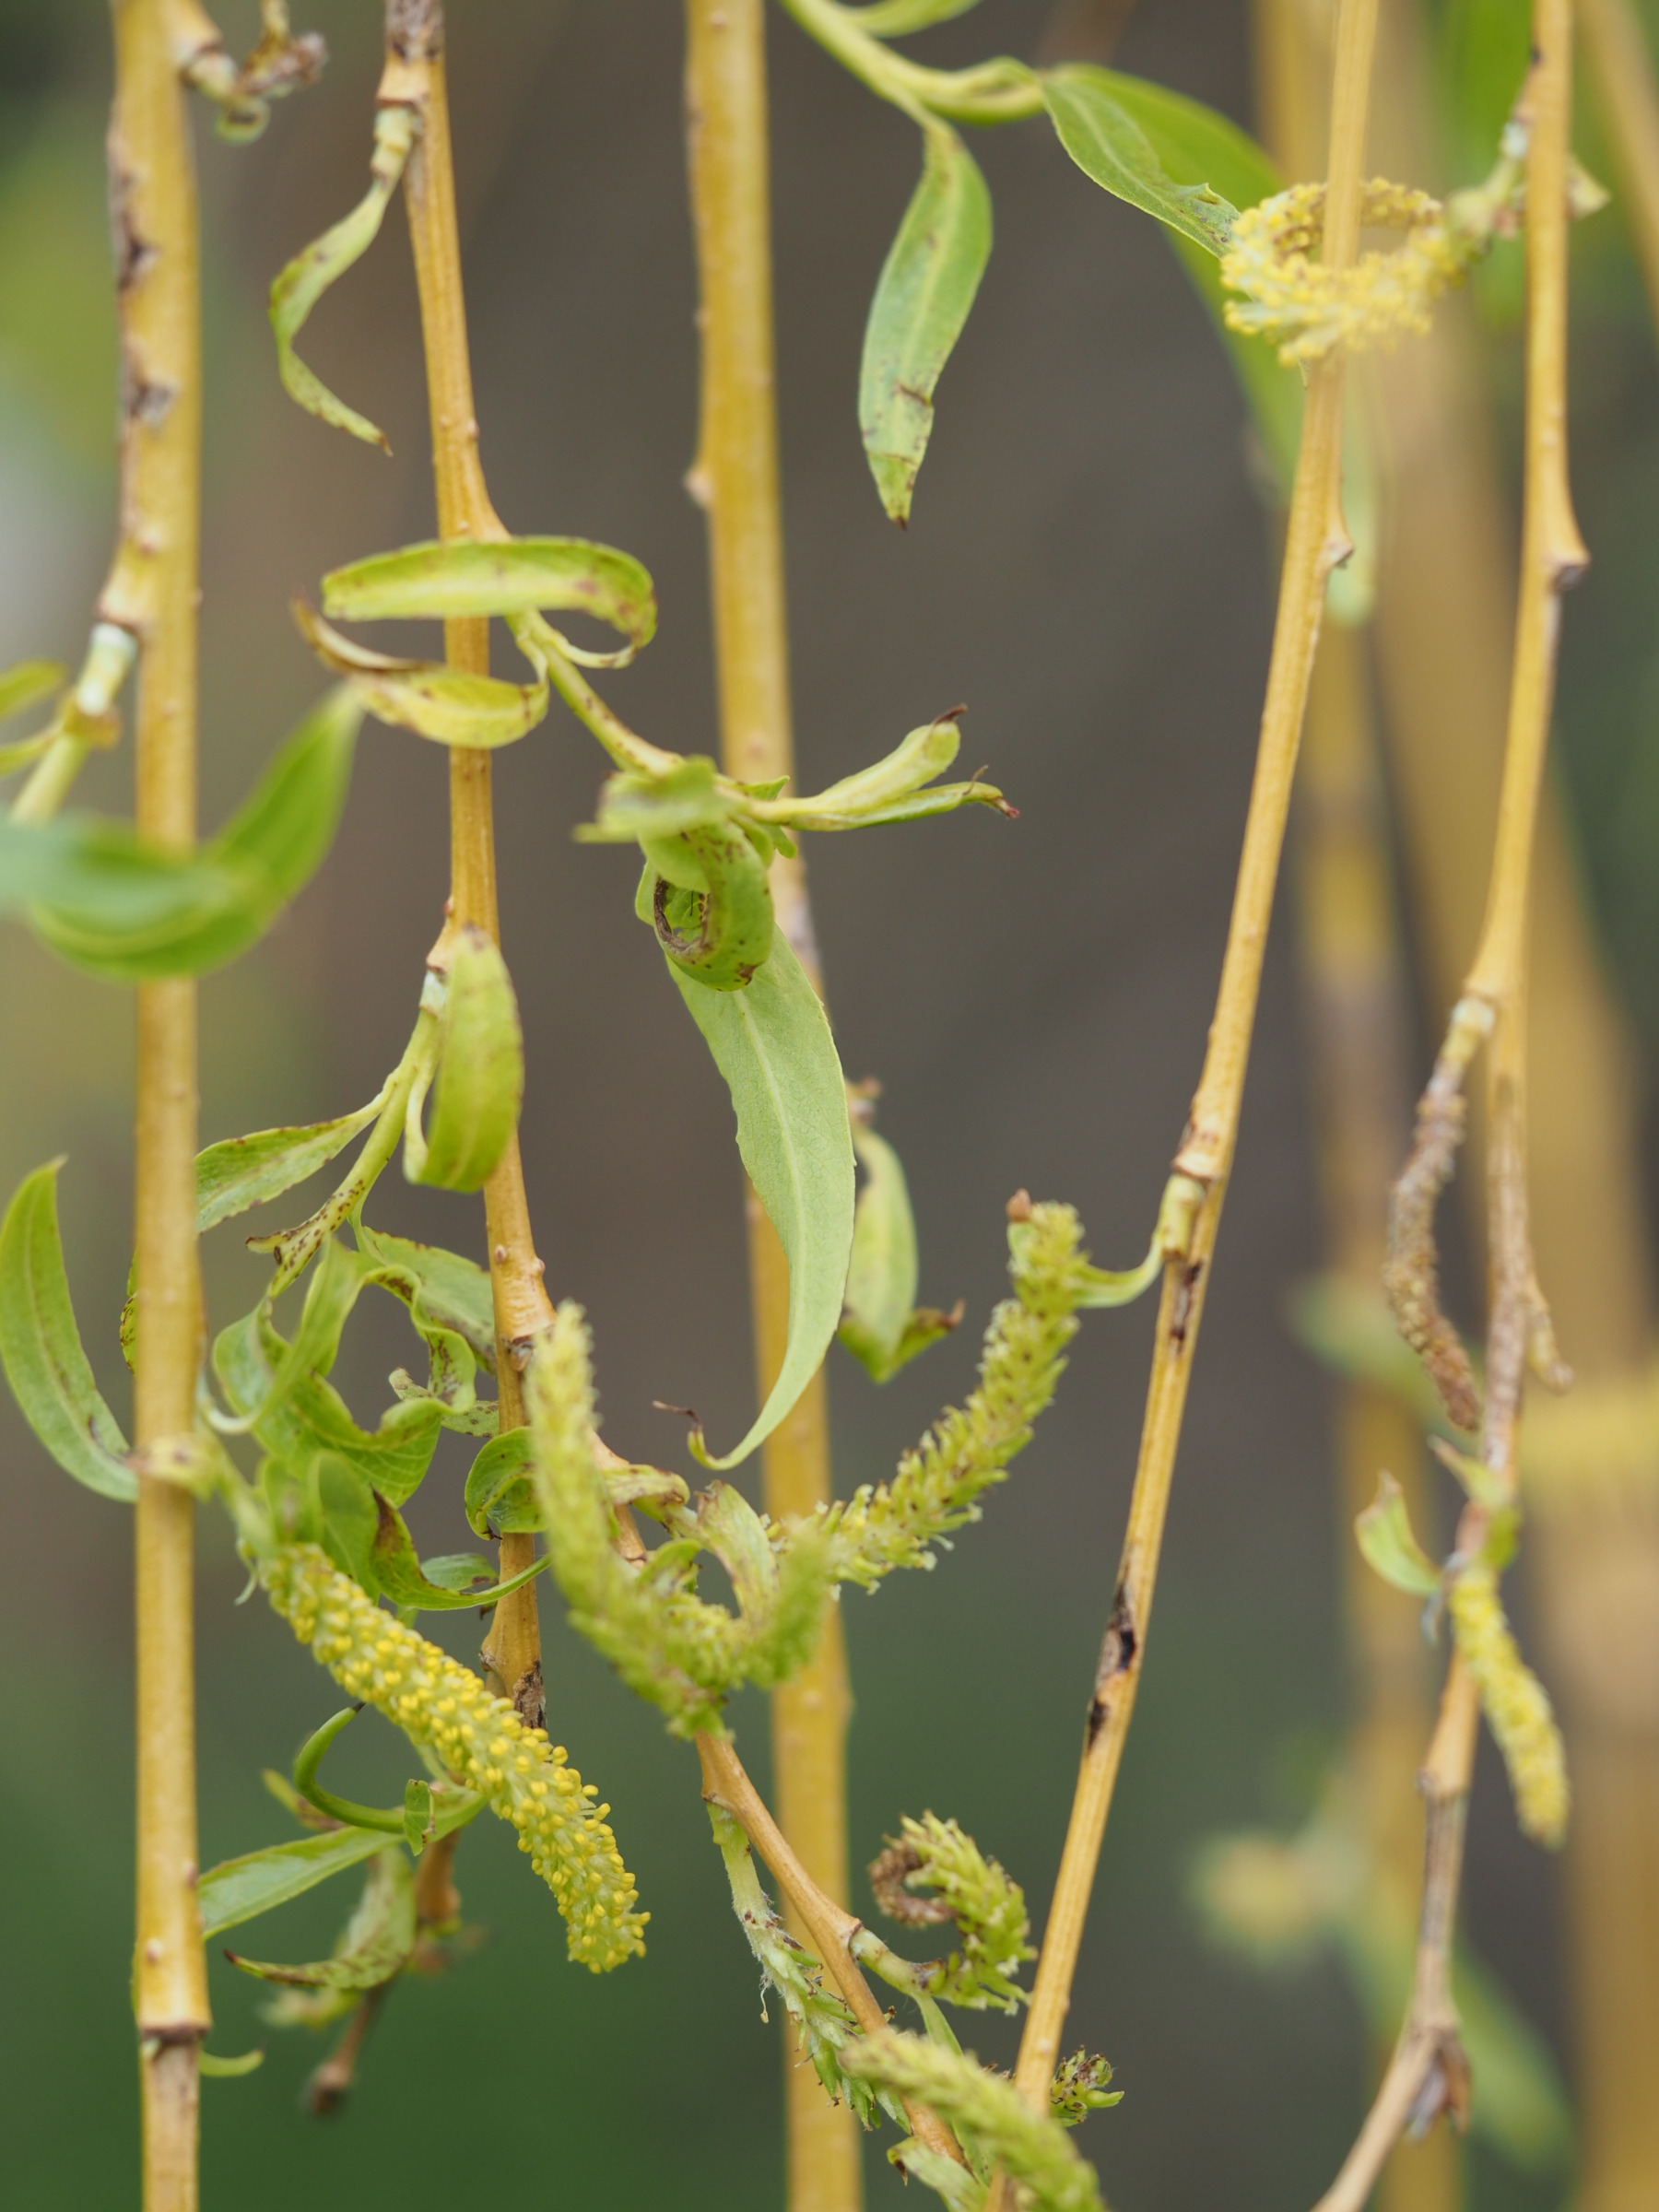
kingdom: Plantae
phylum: Tracheophyta
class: Magnoliopsida
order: Malpighiales
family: Salicaceae
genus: Salix
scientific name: Salix sepulcralis
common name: Hænge-pil
